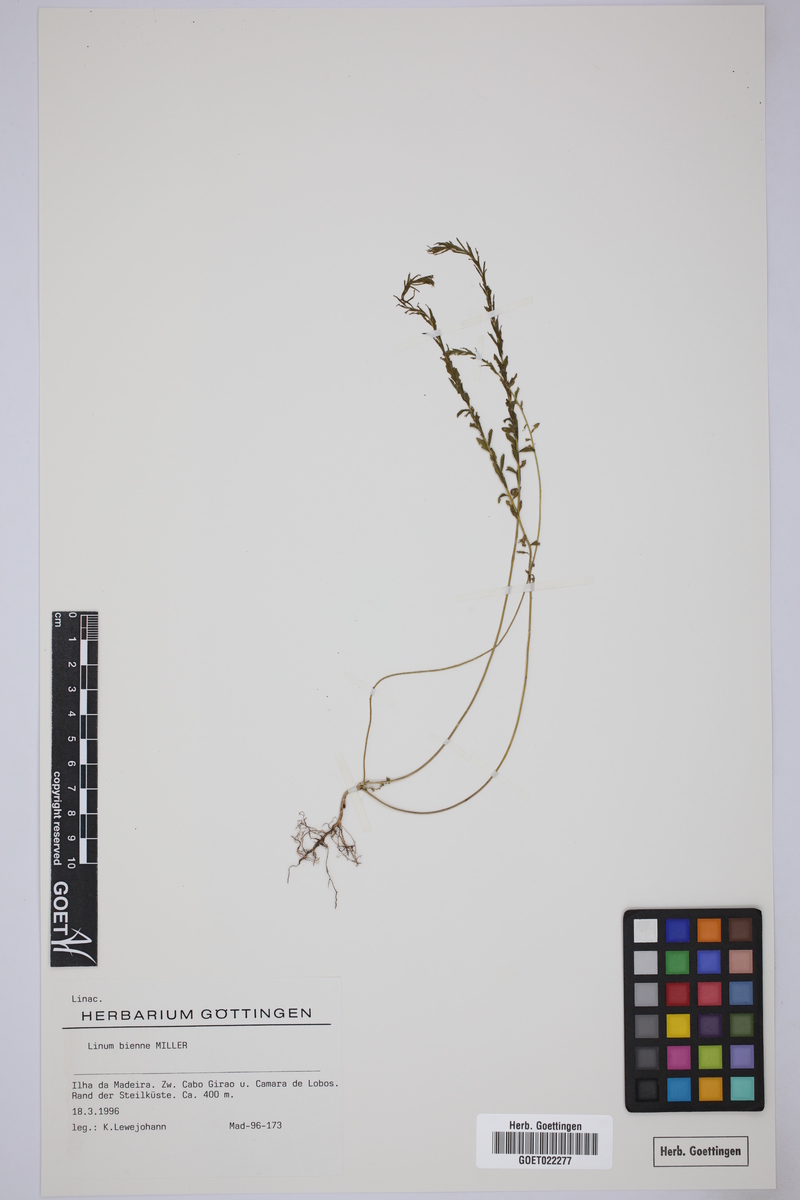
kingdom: Plantae
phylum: Tracheophyta
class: Magnoliopsida
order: Malpighiales
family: Linaceae
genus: Linum
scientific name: Linum bienne
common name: Pale flax
